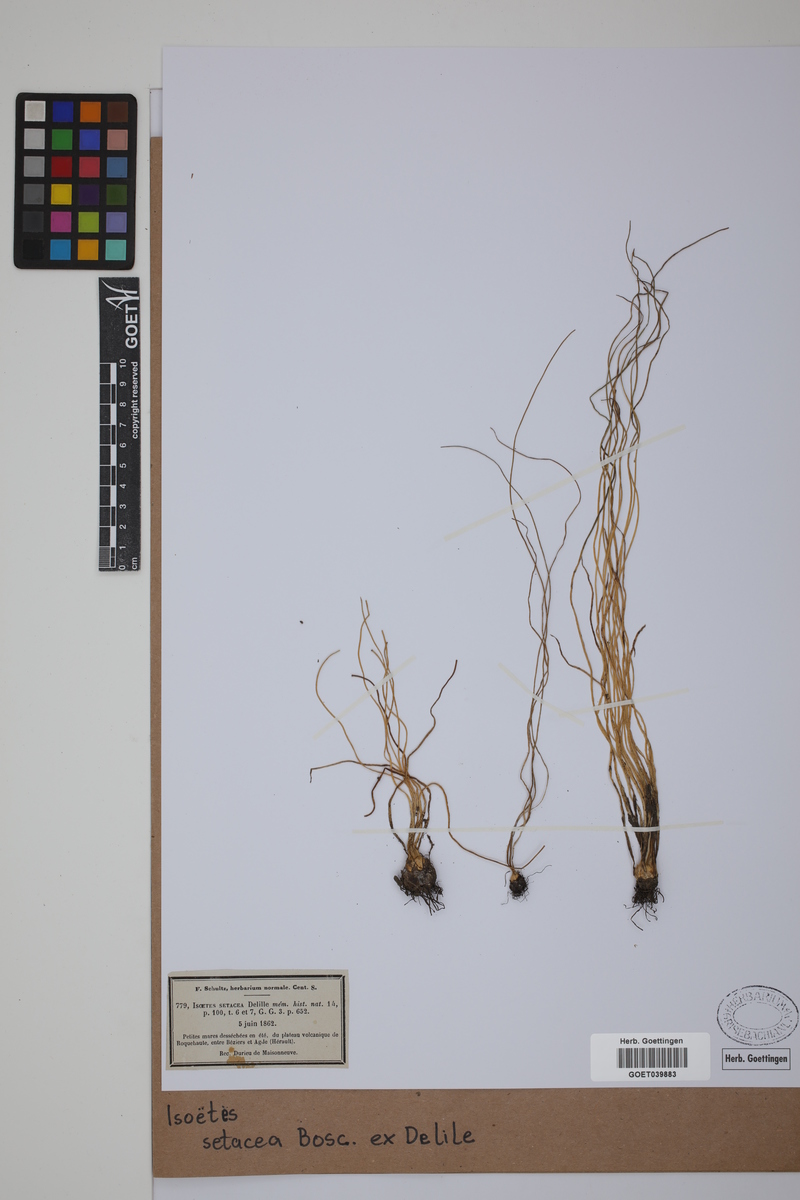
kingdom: Plantae
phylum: Tracheophyta
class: Lycopodiopsida
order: Isoetales
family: Isoetaceae
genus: Isoetes
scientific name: Isoetes longissima
